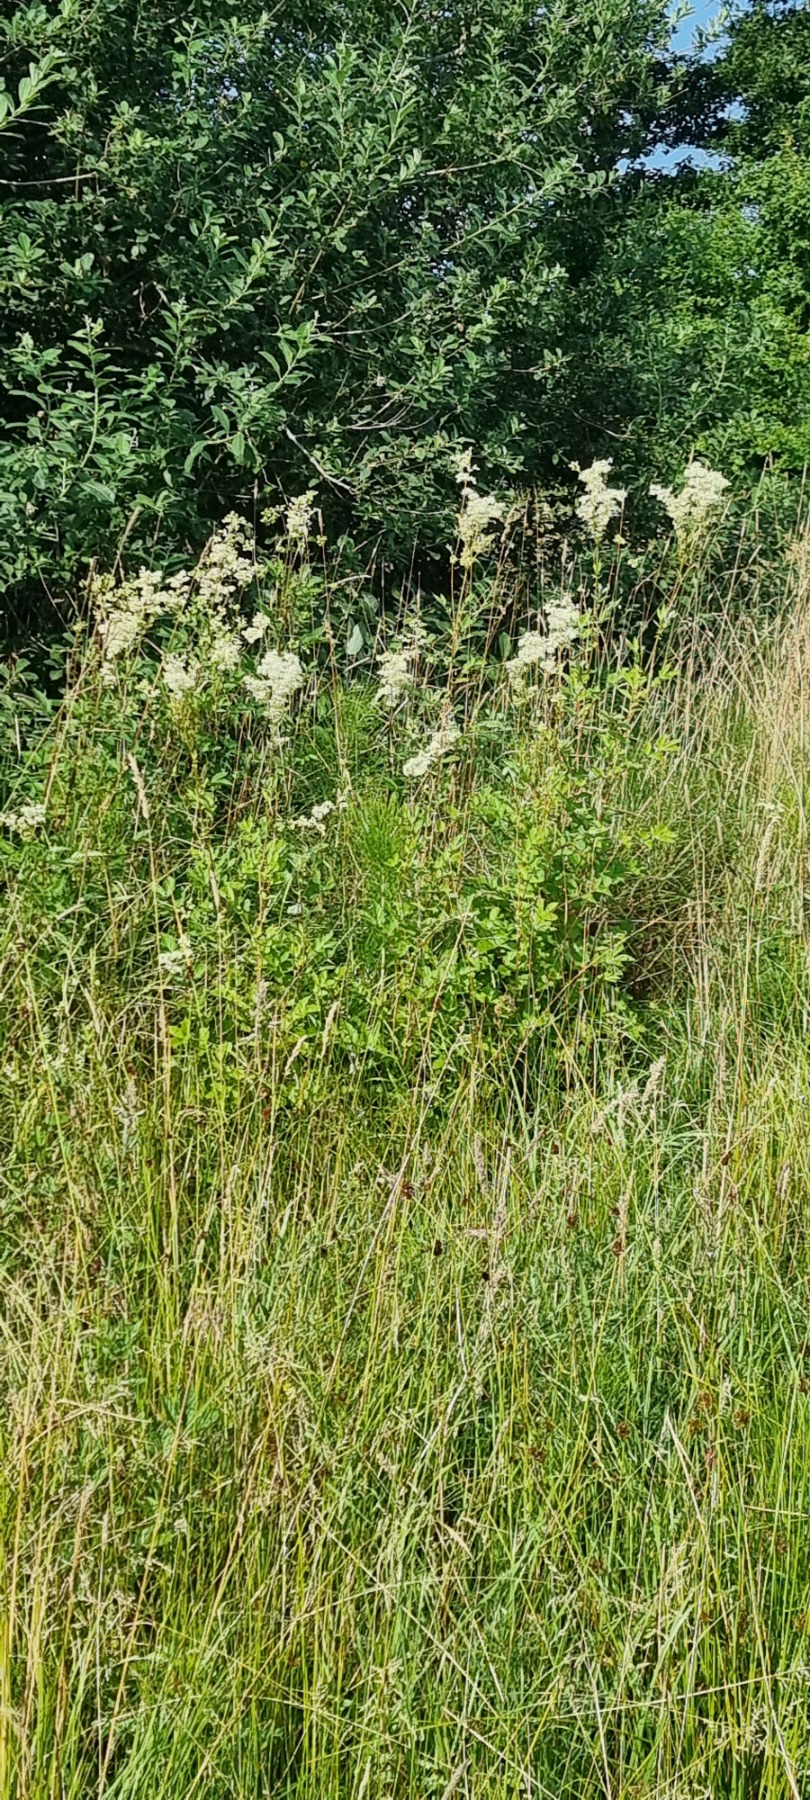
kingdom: Plantae
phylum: Tracheophyta
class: Magnoliopsida
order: Rosales
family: Rosaceae
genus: Filipendula
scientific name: Filipendula ulmaria
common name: Almindelig mjødurt
